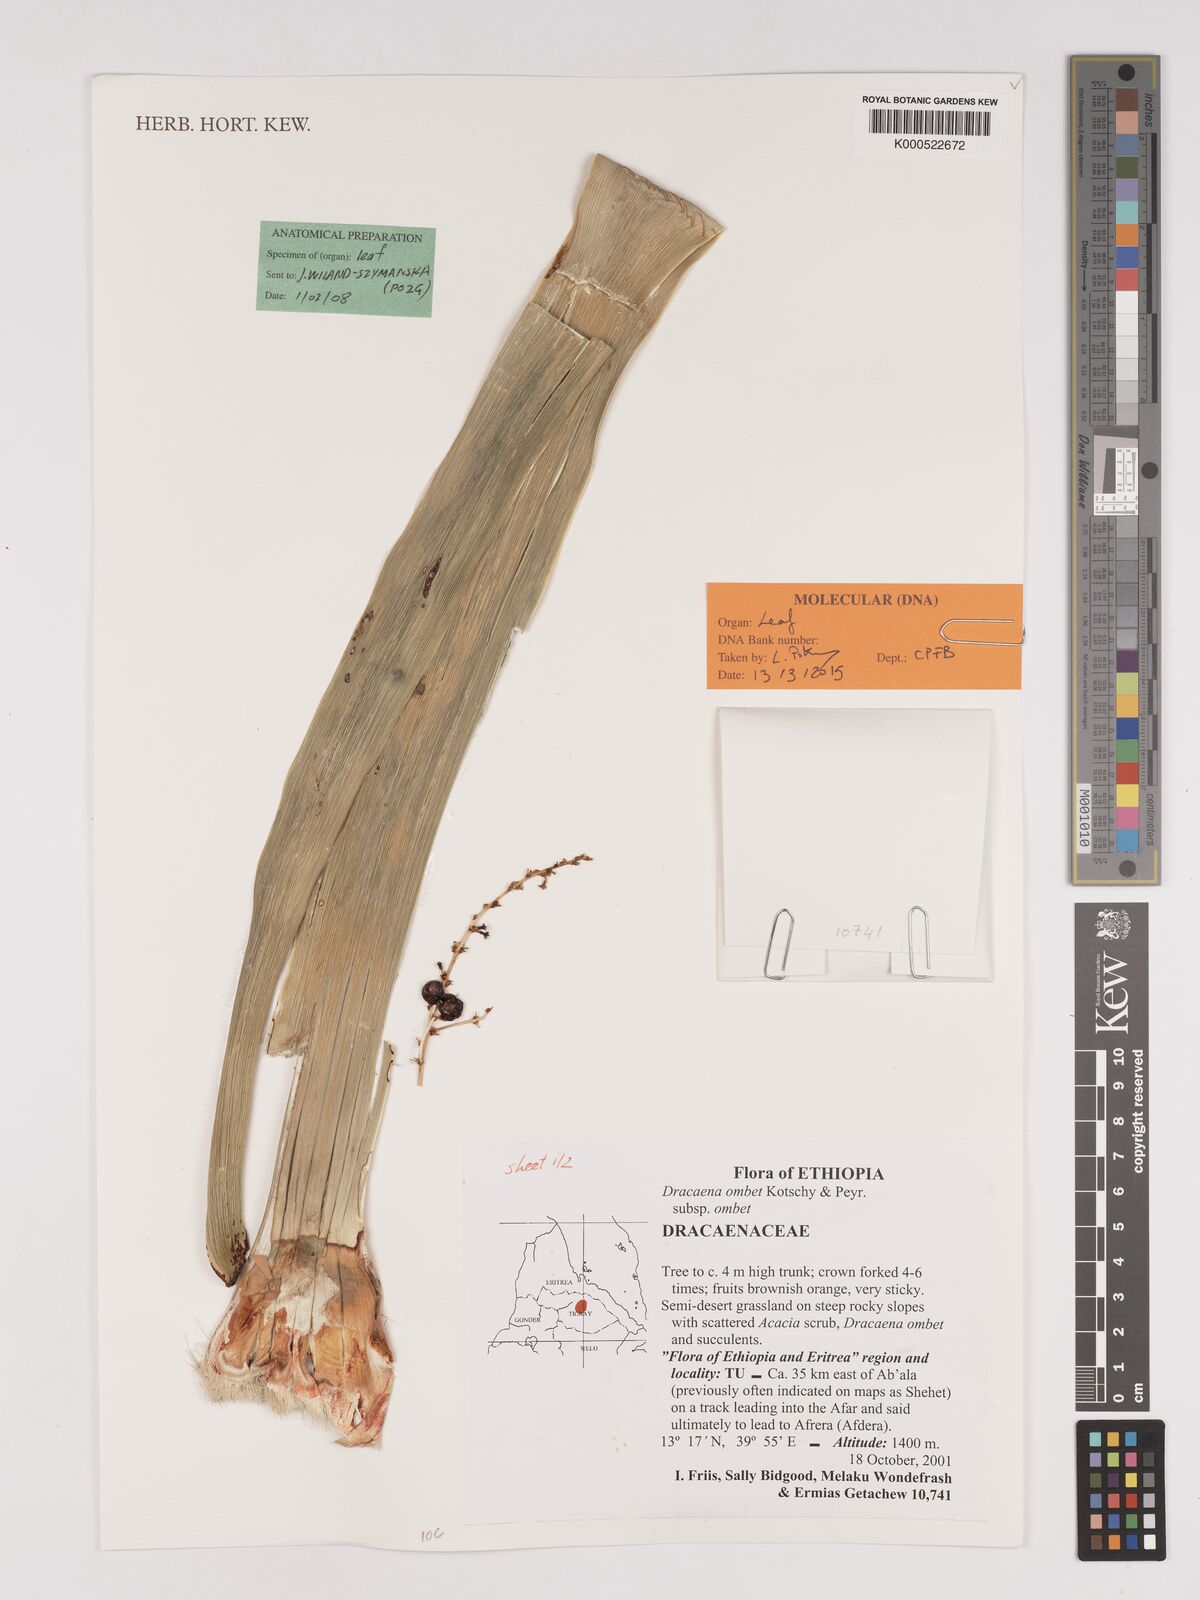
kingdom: Plantae
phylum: Tracheophyta
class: Liliopsida
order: Asparagales
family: Asparagaceae
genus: Dracaena
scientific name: Dracaena ombet
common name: Gabal elba dragon tree
